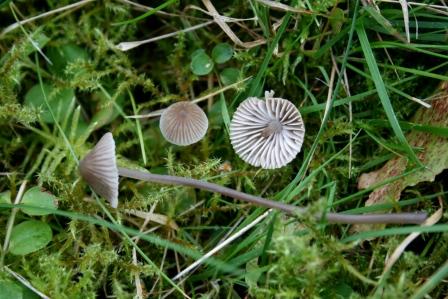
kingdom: Fungi
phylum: Basidiomycota
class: Agaricomycetes
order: Agaricales
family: Mycenaceae
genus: Mycena
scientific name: Mycena leptocephala
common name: klor-huesvamp
